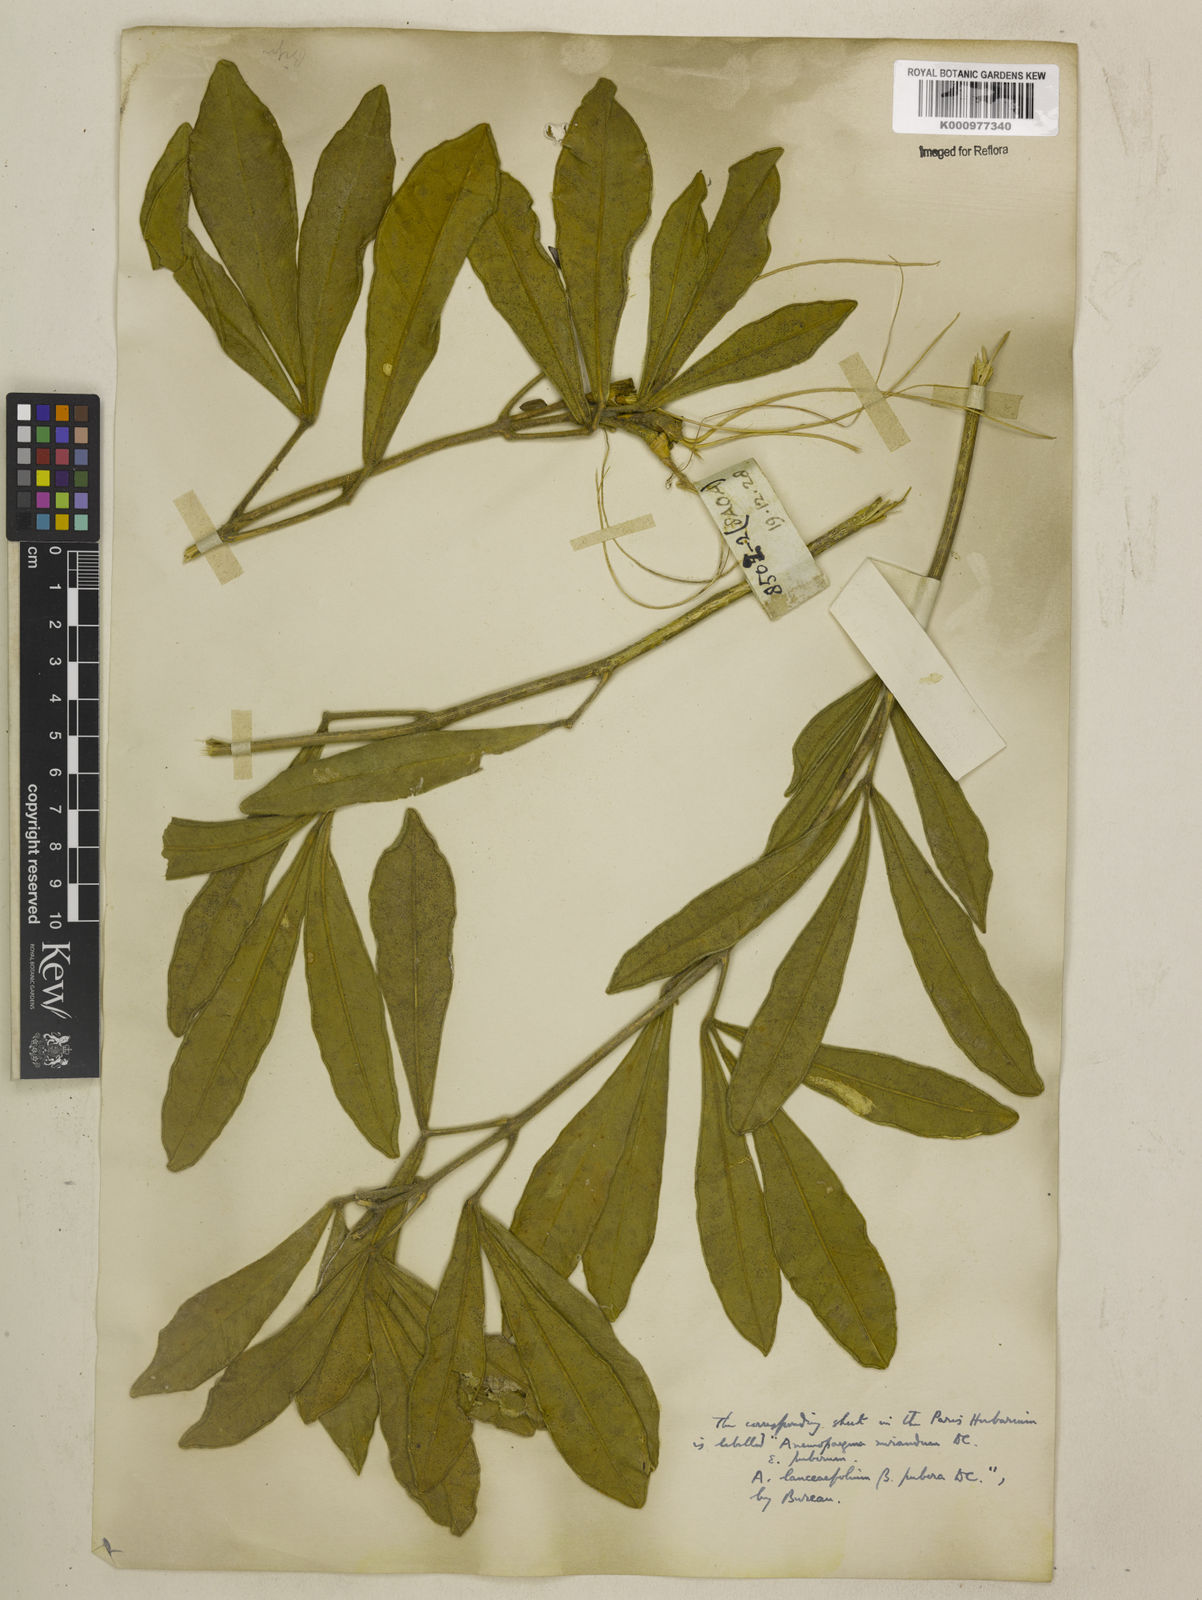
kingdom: Plantae
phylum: Tracheophyta
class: Magnoliopsida
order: Lamiales
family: Bignoniaceae
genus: Anemopaegma
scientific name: Anemopaegma glaucum
